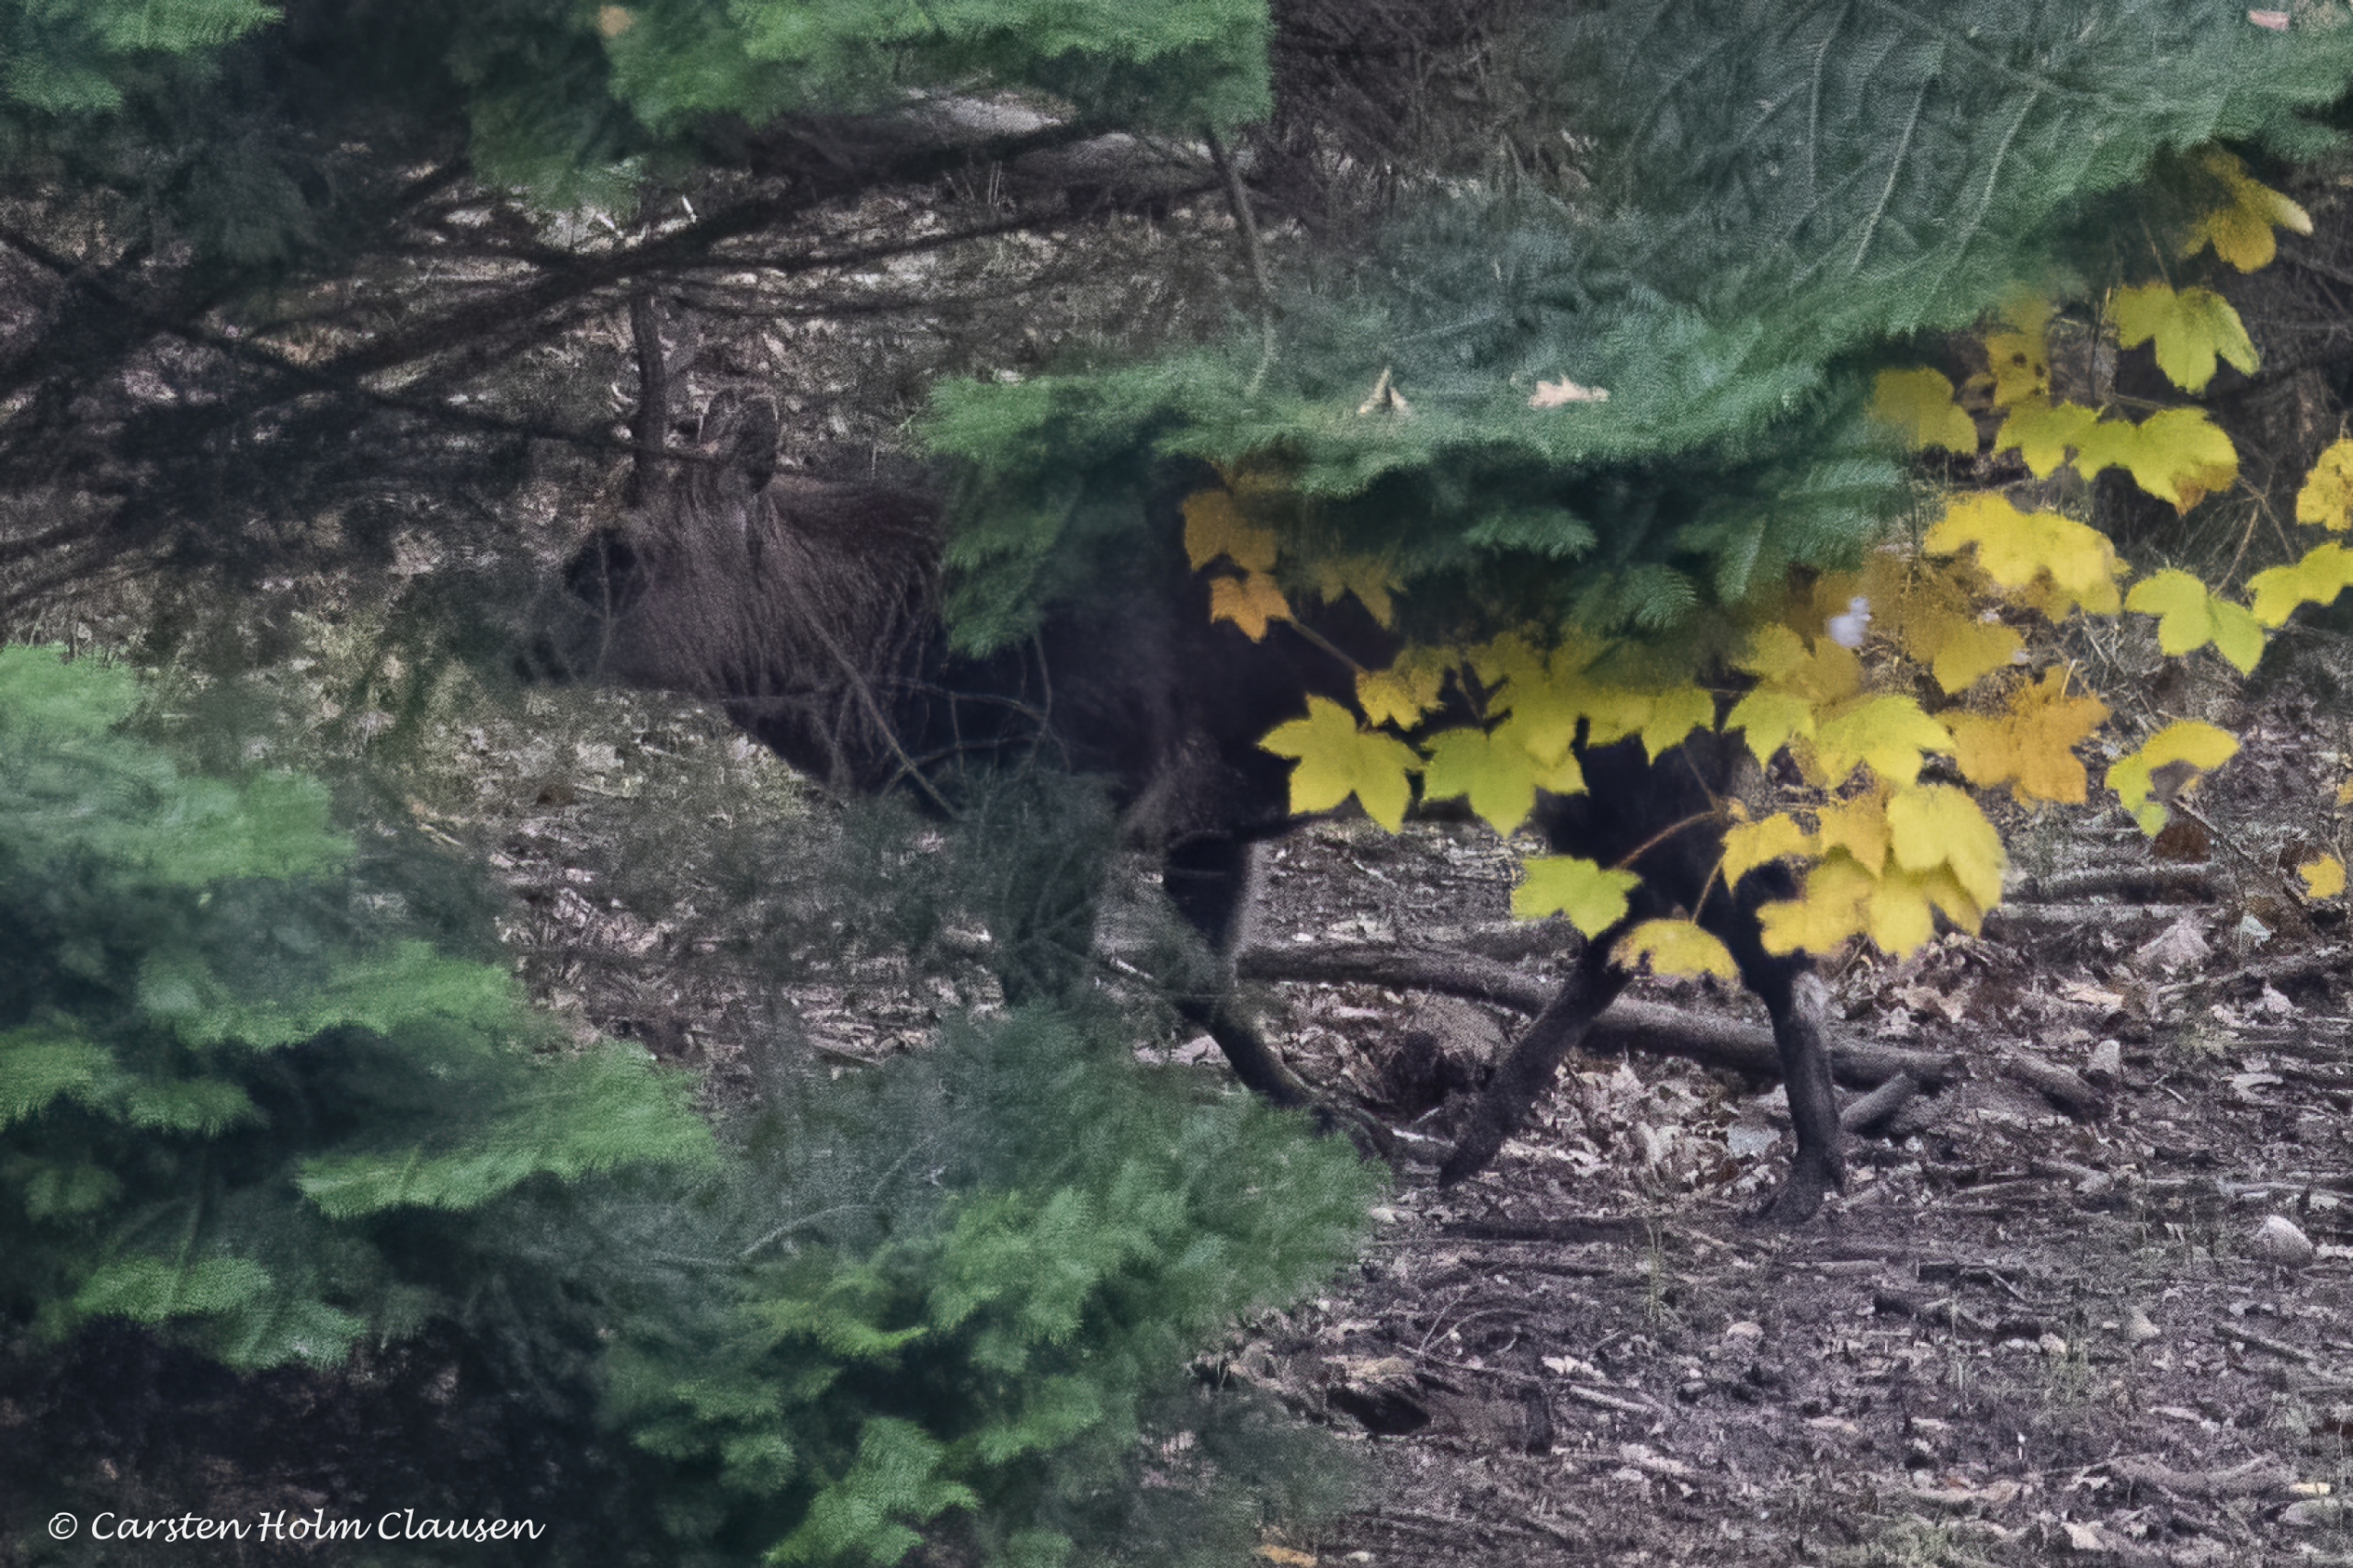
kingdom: Animalia
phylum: Chordata
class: Mammalia
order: Artiodactyla
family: Cervidae
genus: Cervus
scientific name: Cervus nippon
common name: Sika
